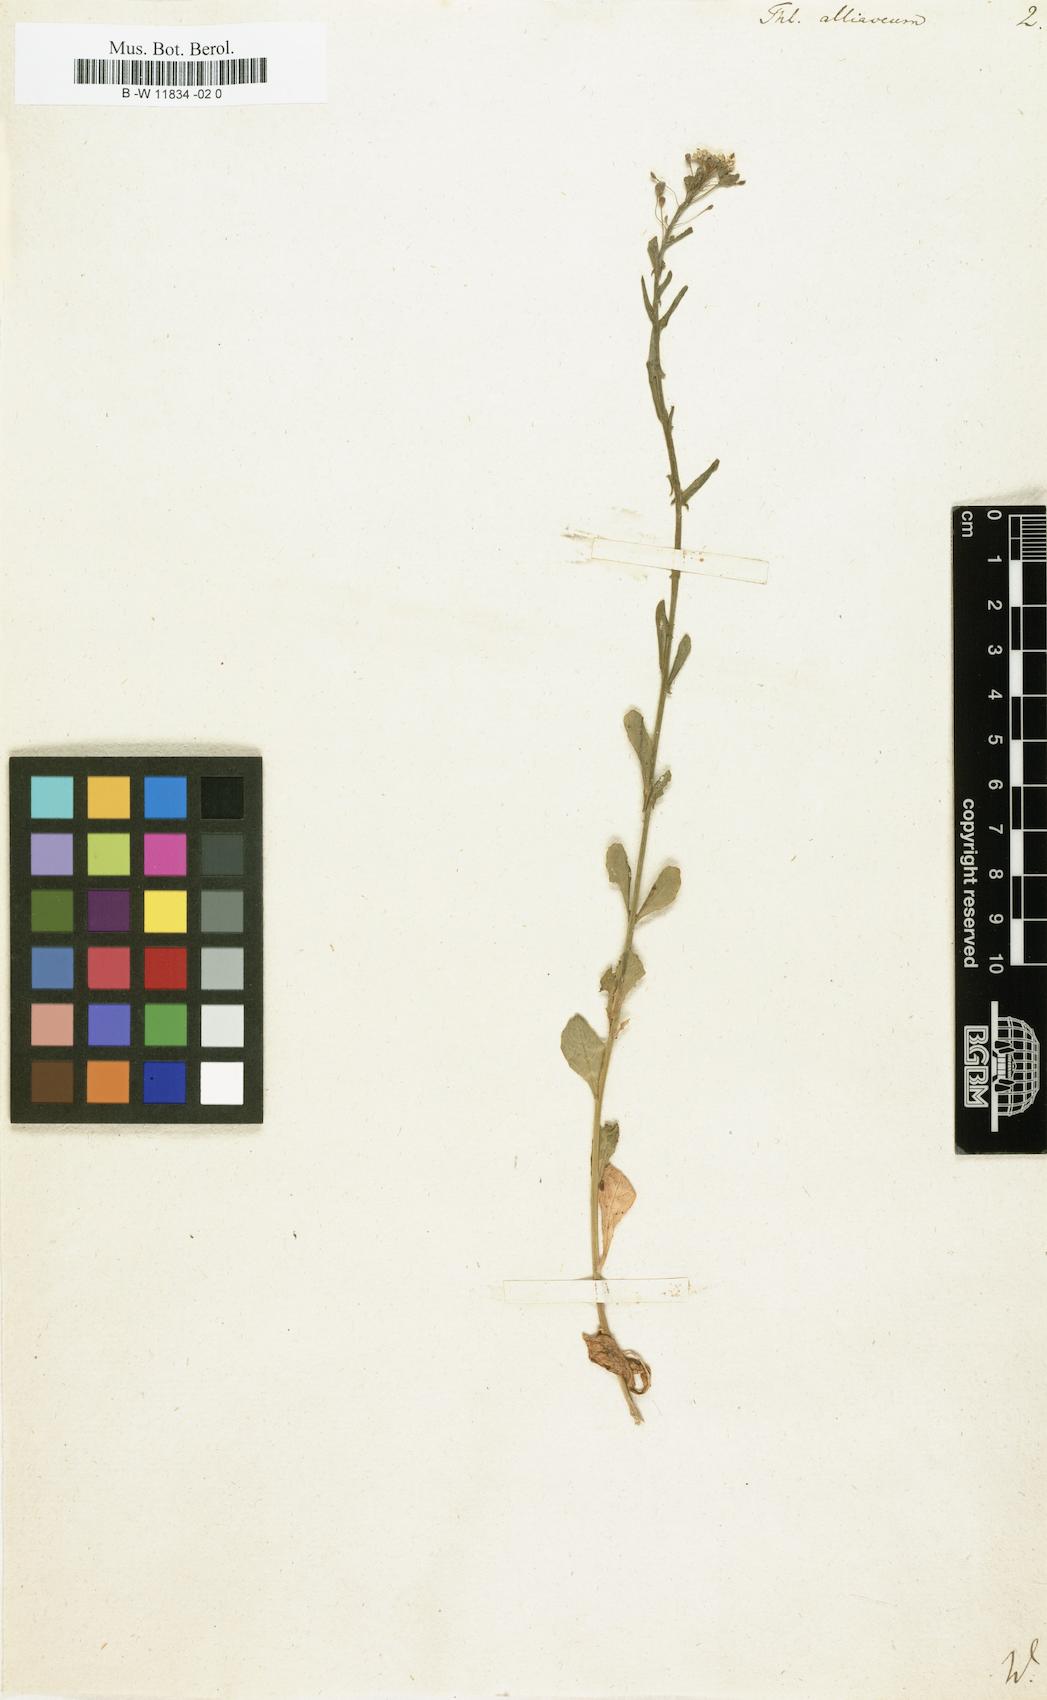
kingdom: Plantae
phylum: Tracheophyta
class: Magnoliopsida
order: Brassicales
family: Brassicaceae
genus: Mummenhoffia
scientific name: Mummenhoffia alliacea
